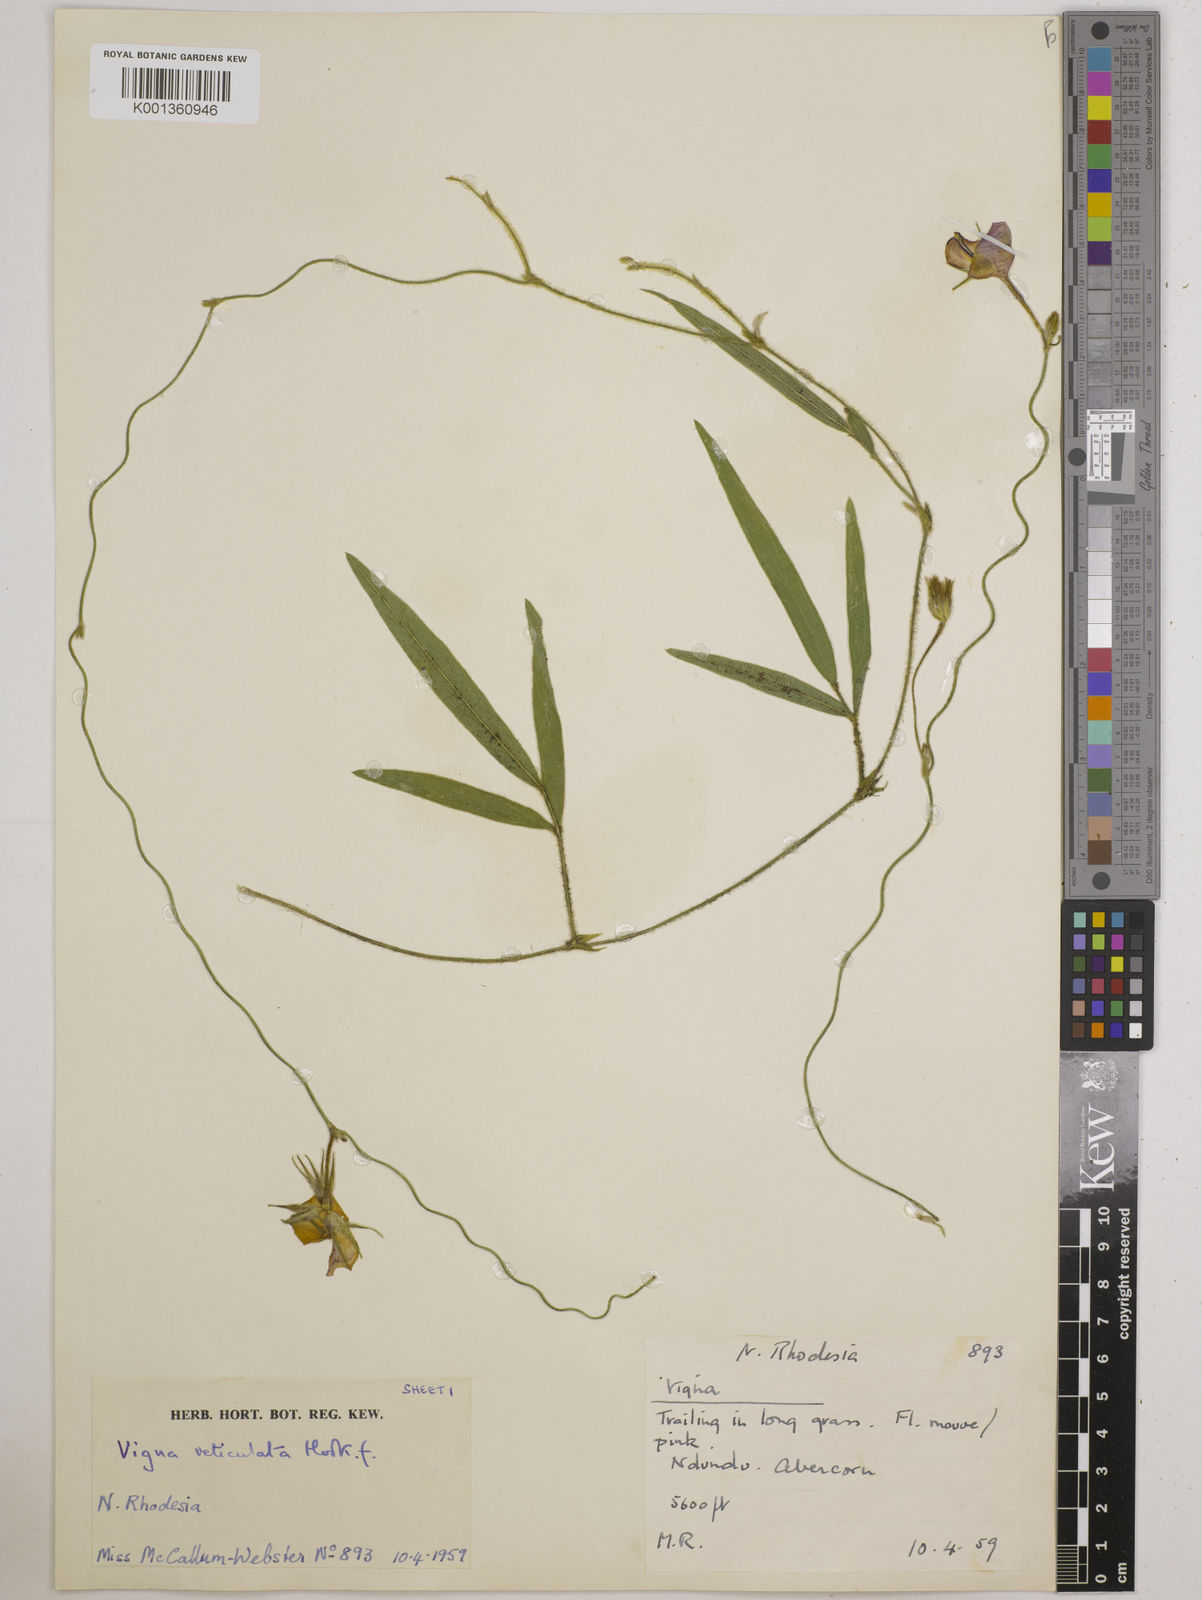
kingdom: Plantae
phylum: Tracheophyta
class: Magnoliopsida
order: Fabales
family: Fabaceae
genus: Vigna
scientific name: Vigna reticulata
